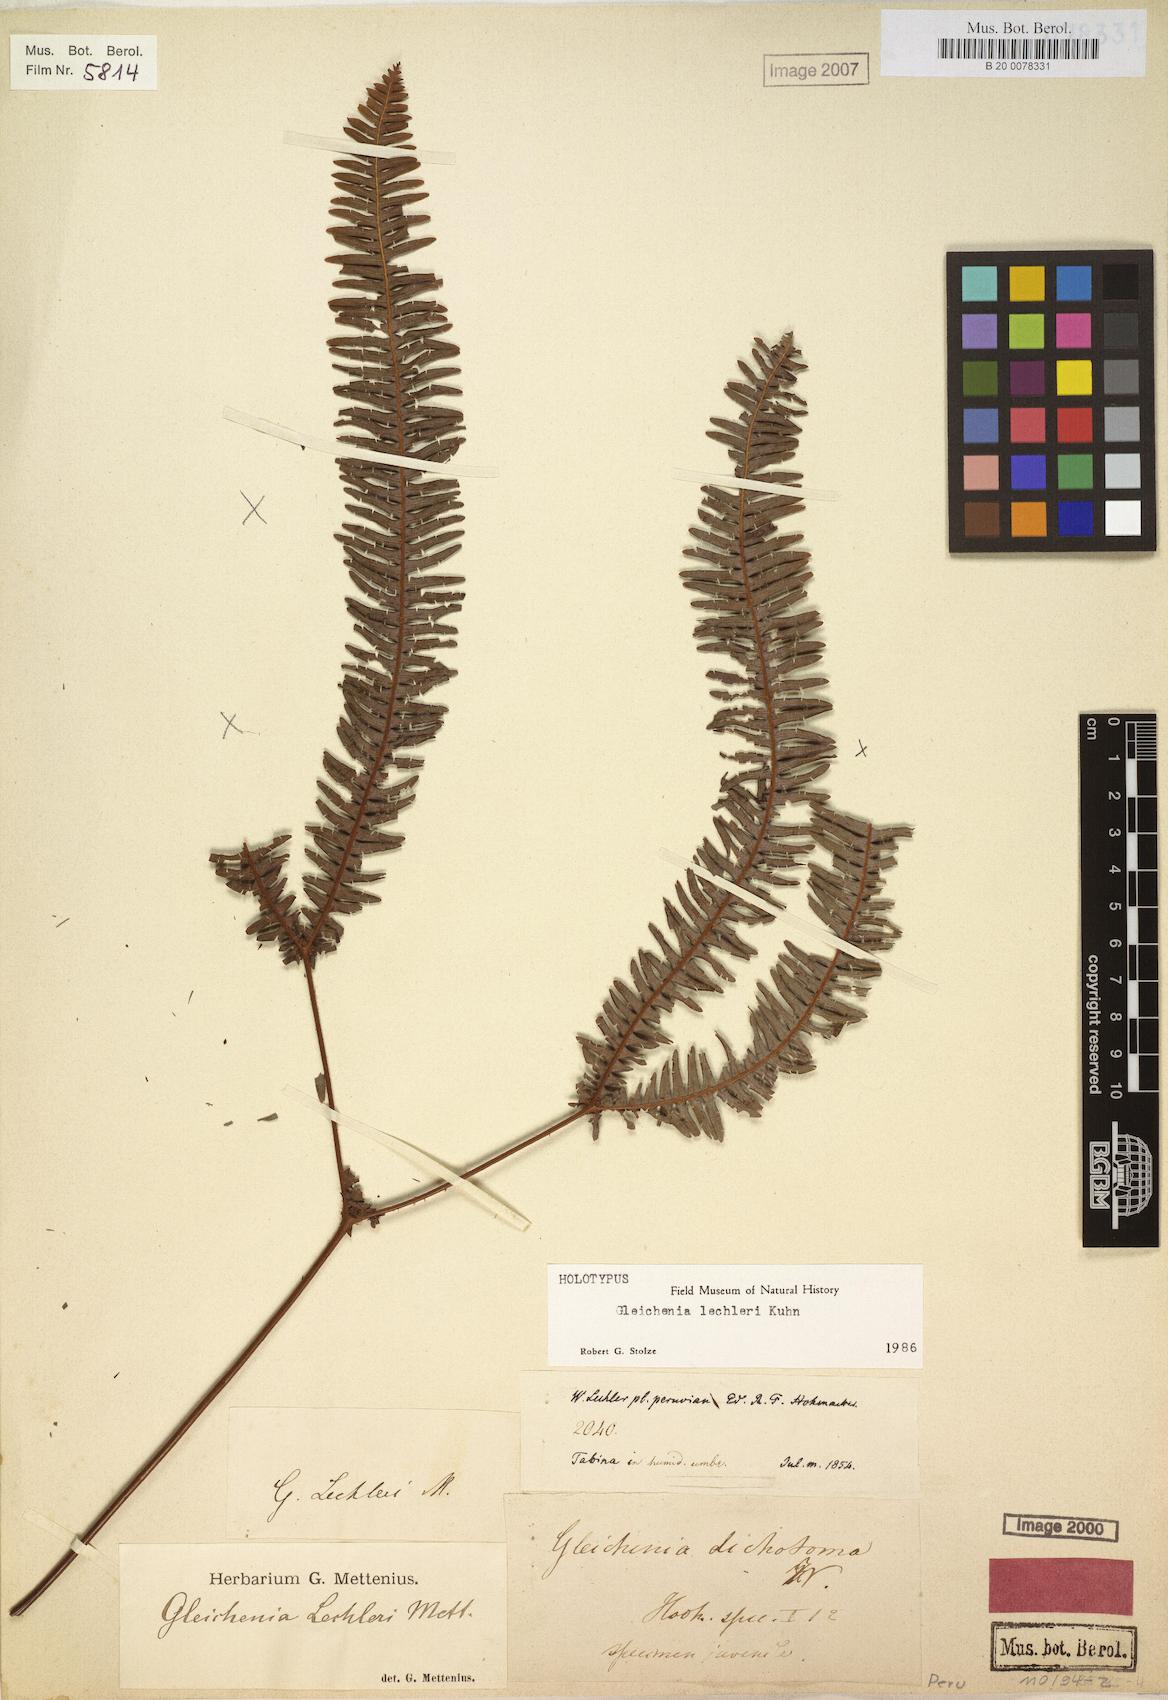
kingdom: Plantae
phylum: Tracheophyta
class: Polypodiopsida
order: Gleicheniales
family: Gleicheniaceae
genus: Sticherus
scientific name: Sticherus lechleri
